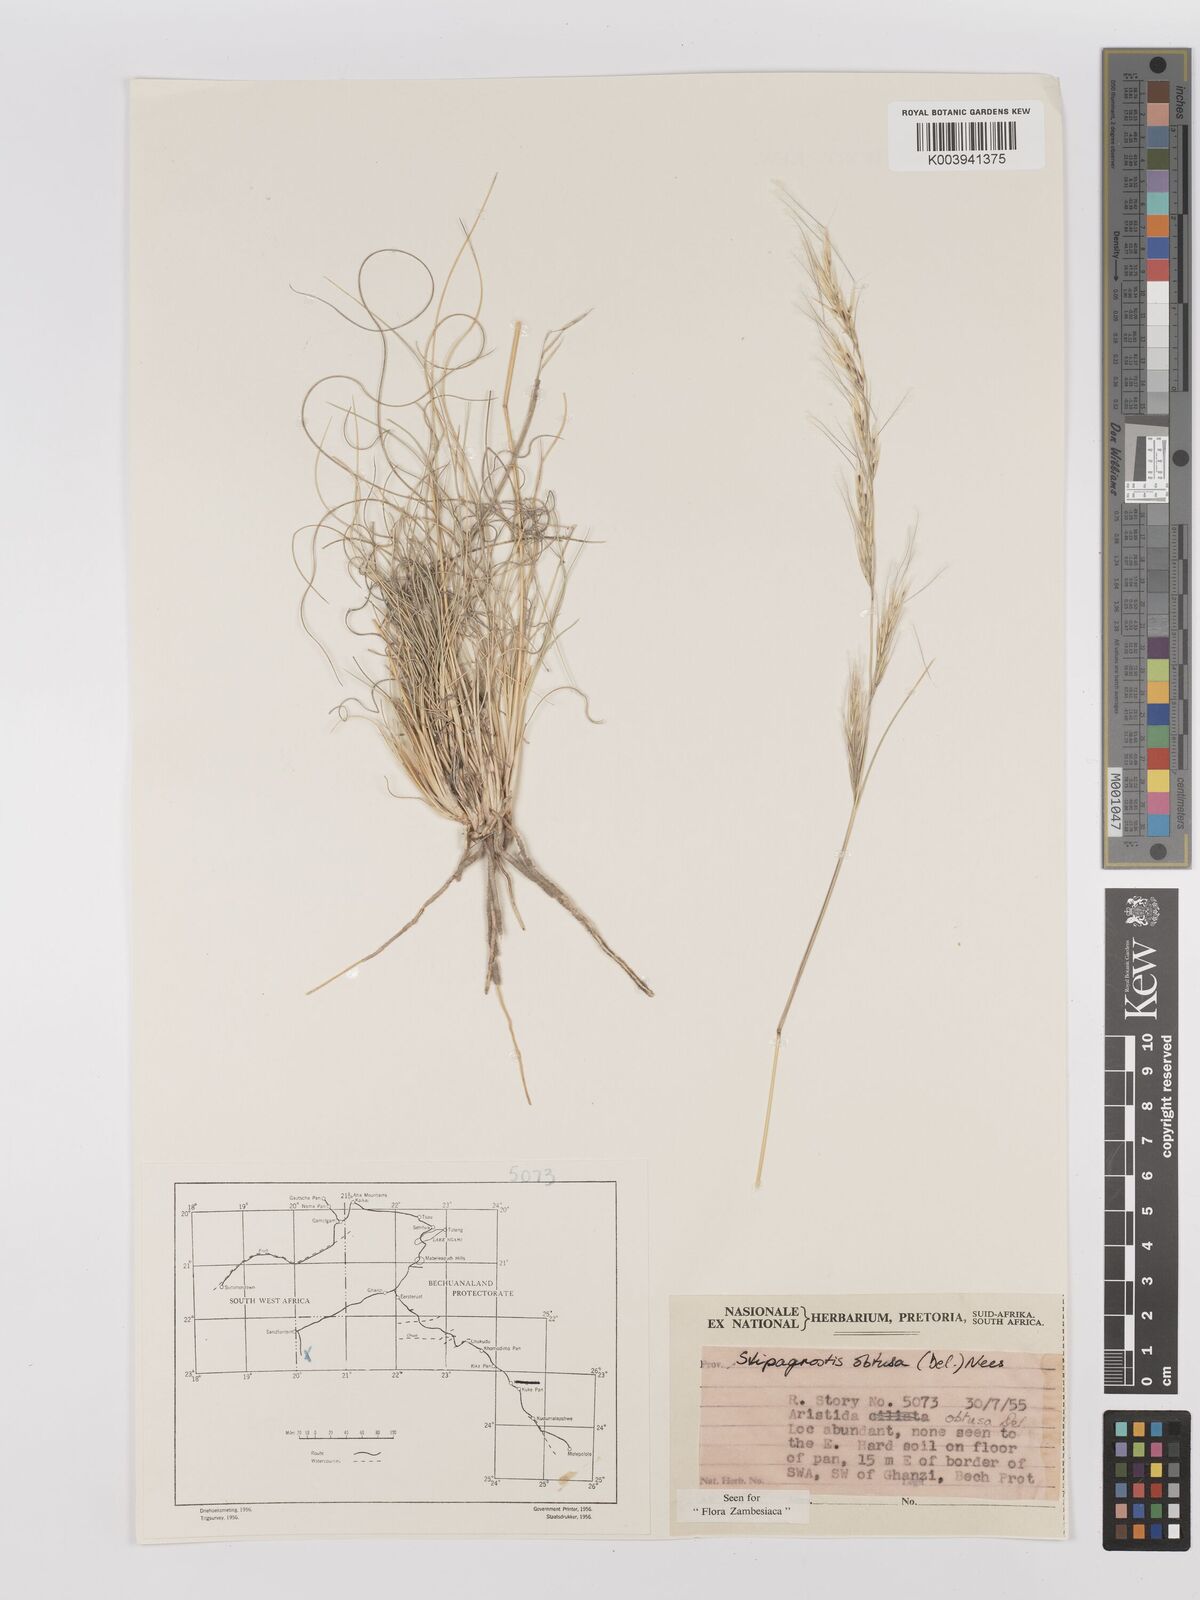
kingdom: Plantae
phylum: Tracheophyta
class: Liliopsida
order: Poales
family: Poaceae
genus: Stipagrostis
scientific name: Stipagrostis obtusa
